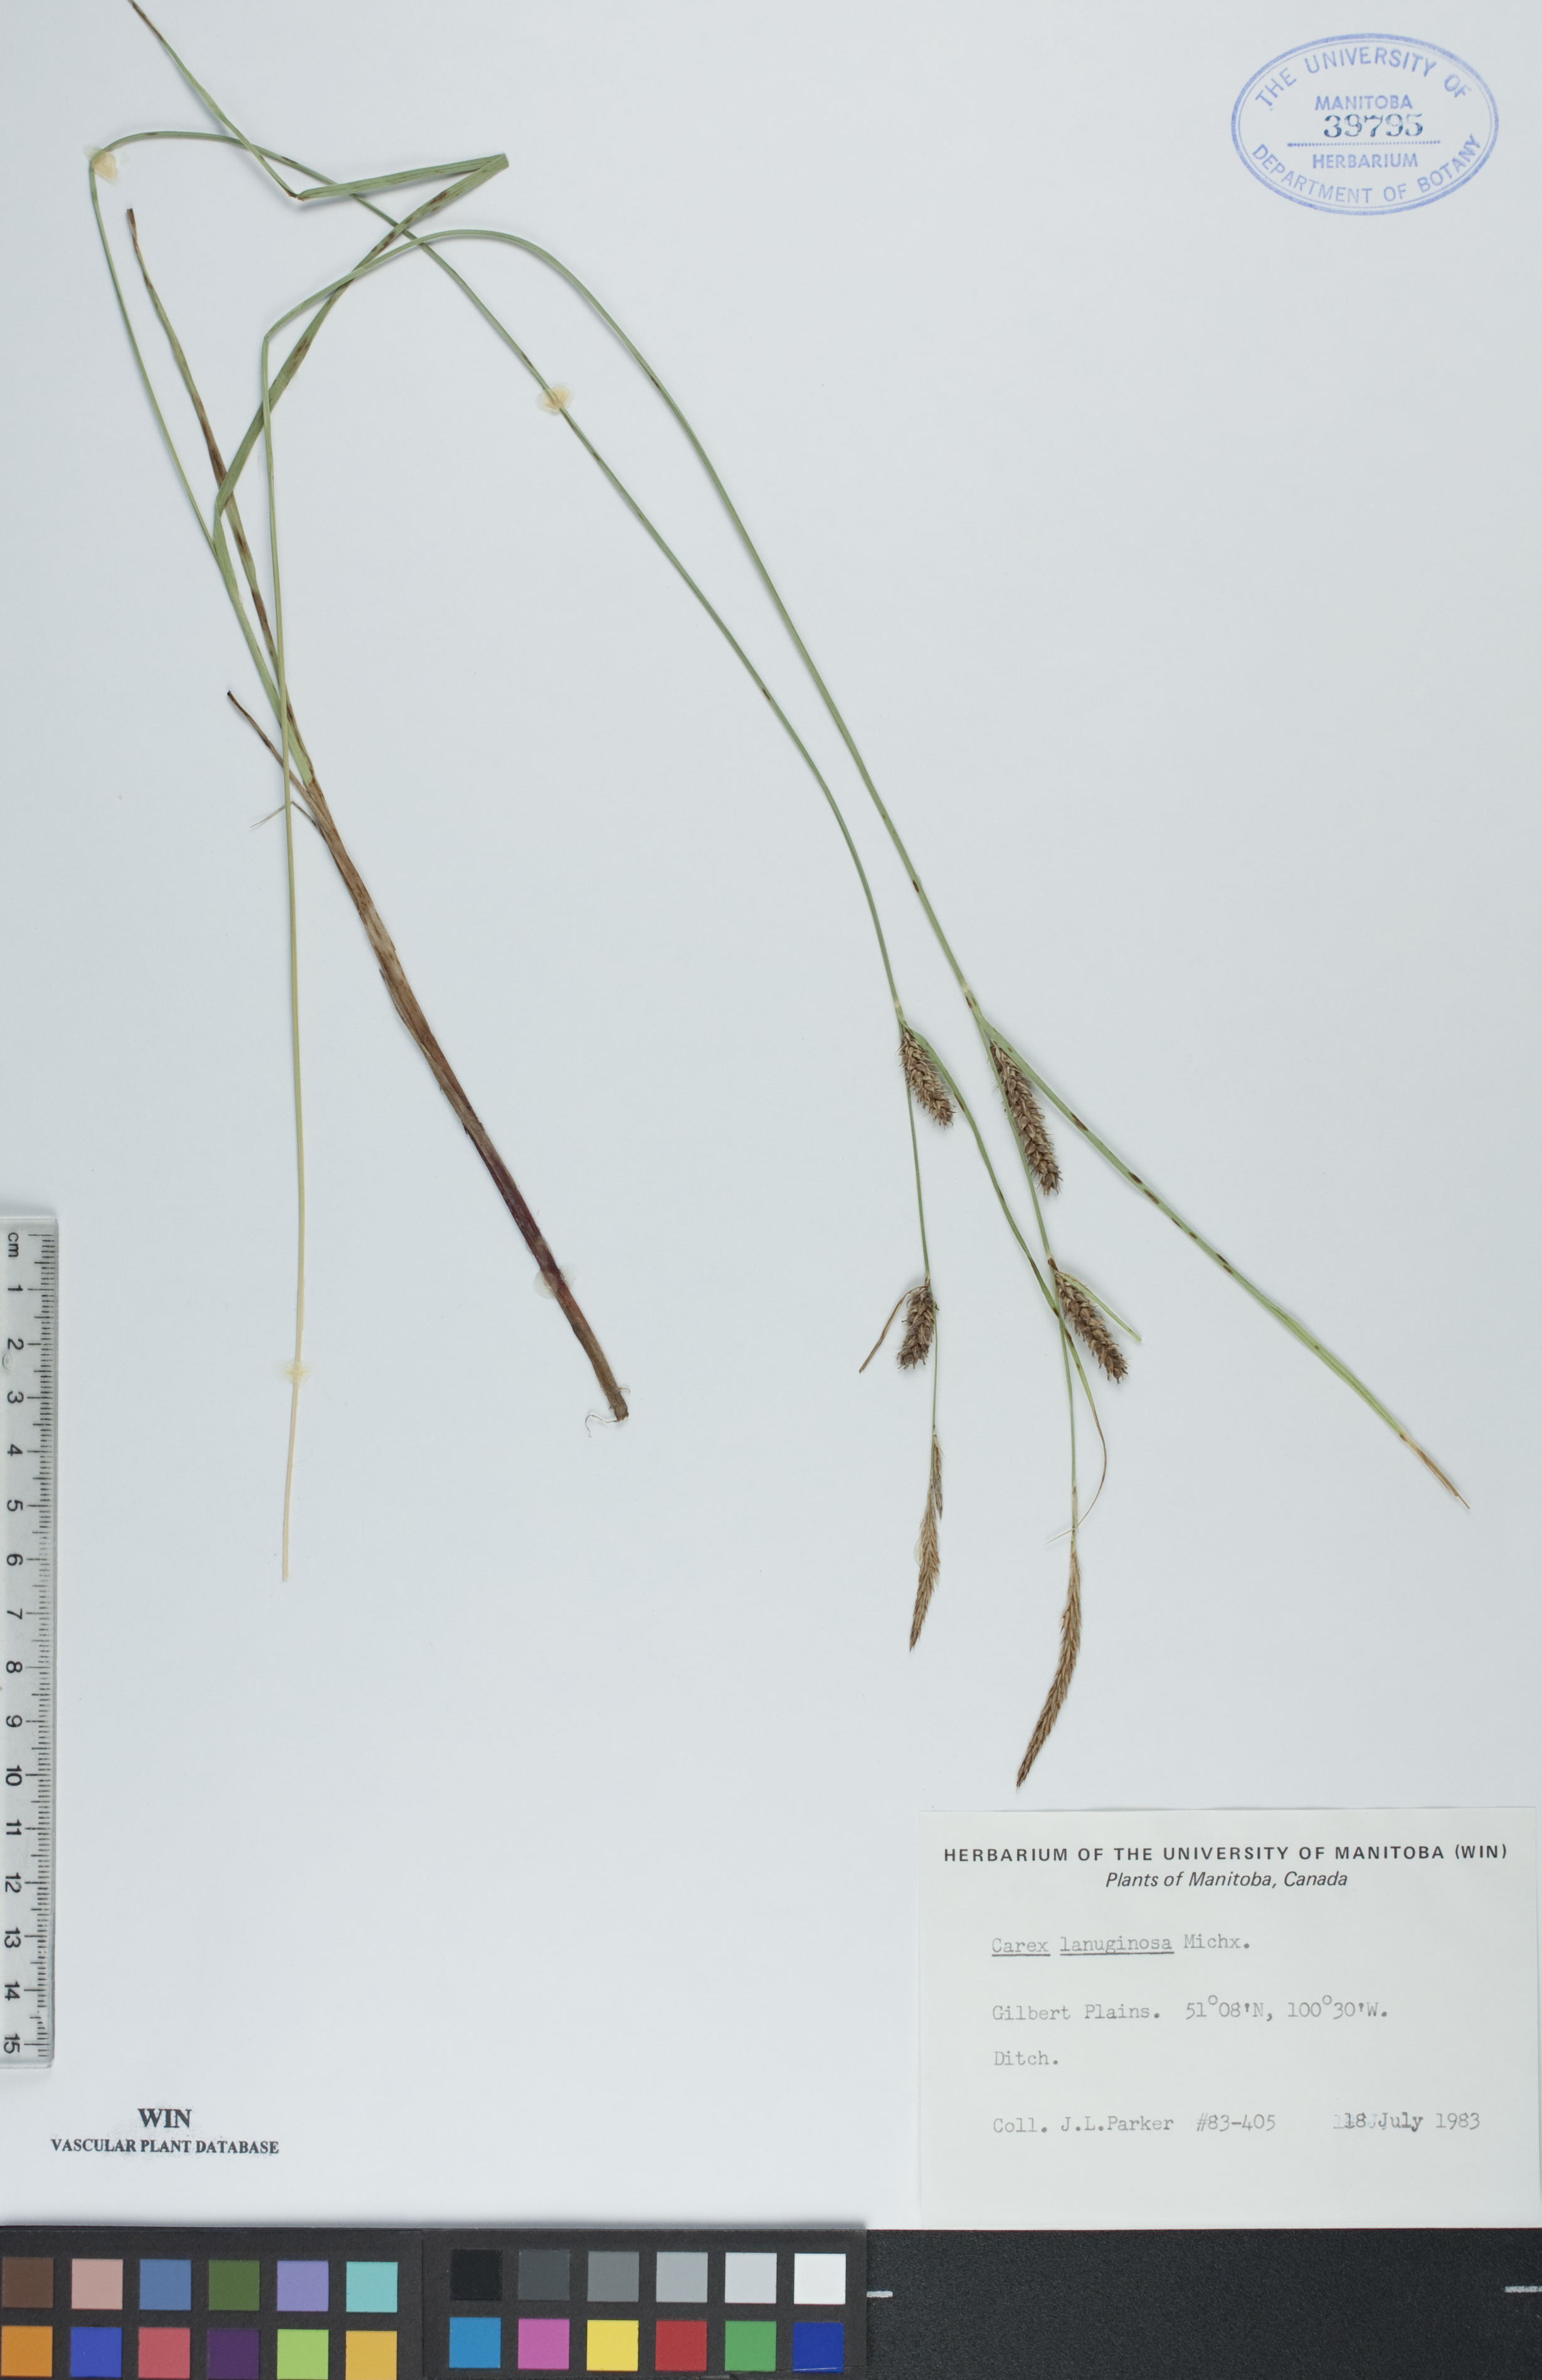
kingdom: Plantae
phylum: Tracheophyta
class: Liliopsida
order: Poales
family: Cyperaceae
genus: Carex
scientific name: Carex lasiocarpa
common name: Slender sedge
